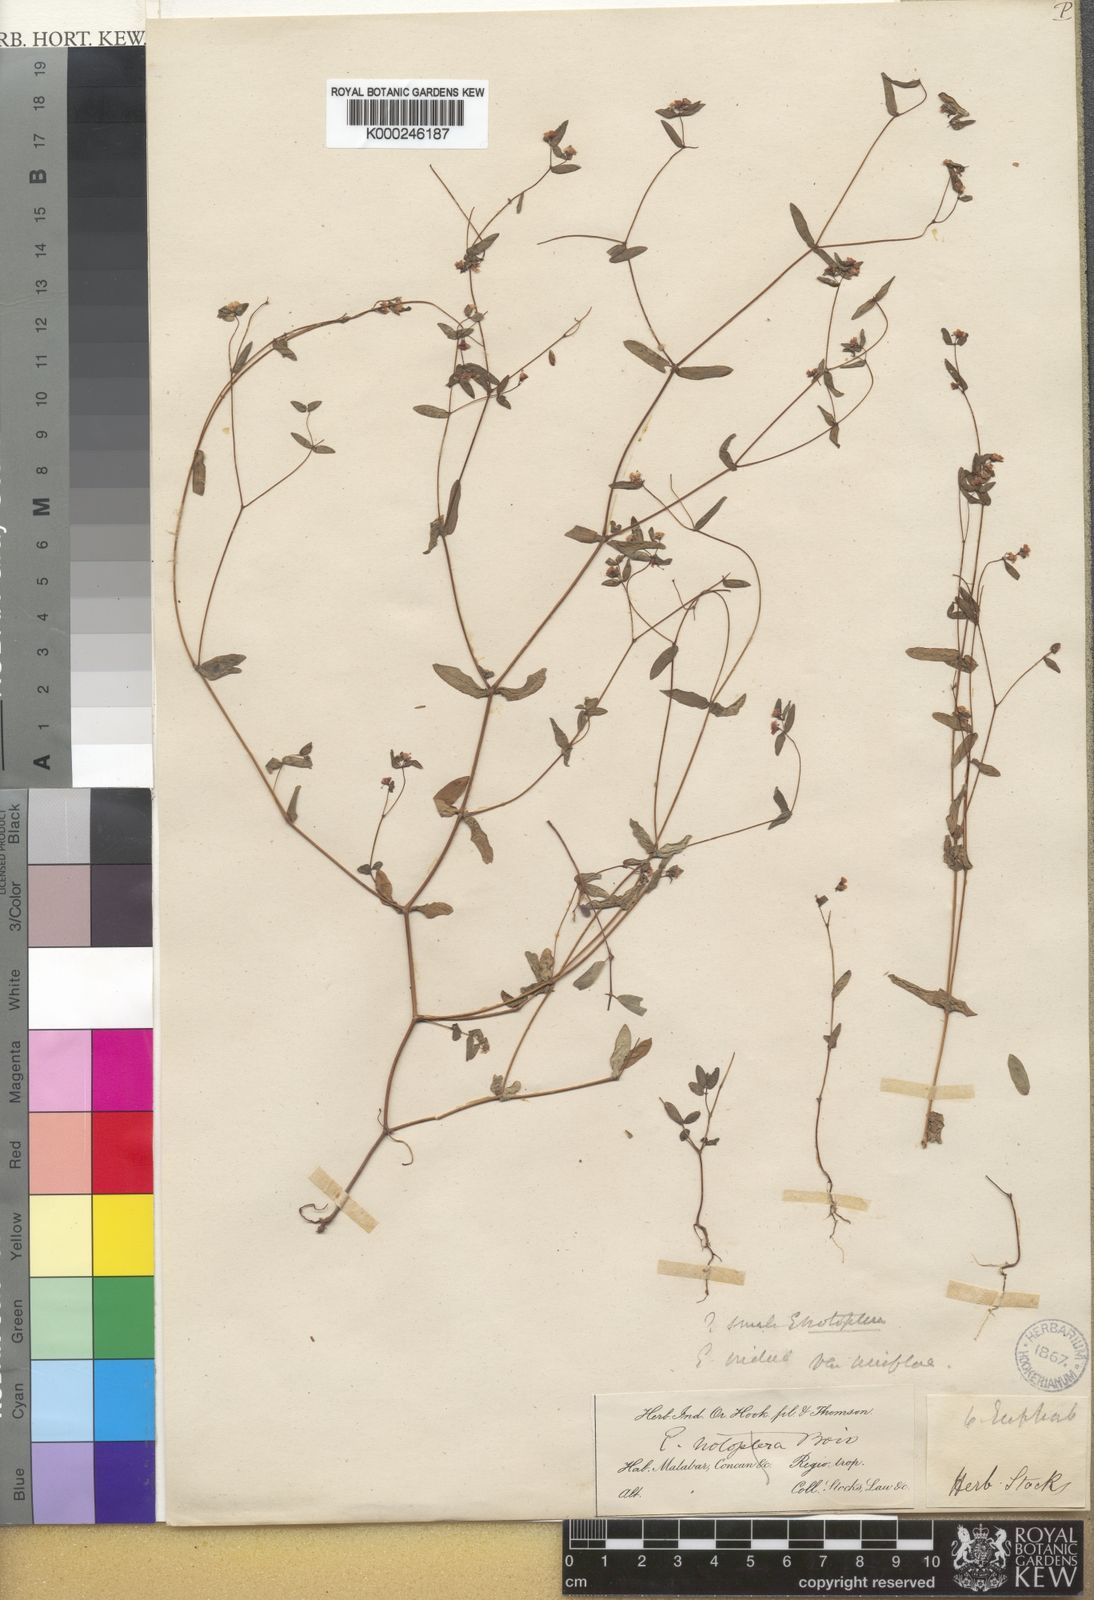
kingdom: Plantae
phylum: Tracheophyta
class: Magnoliopsida
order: Malpighiales
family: Euphorbiaceae
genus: Euphorbia
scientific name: Euphorbia notoptera
